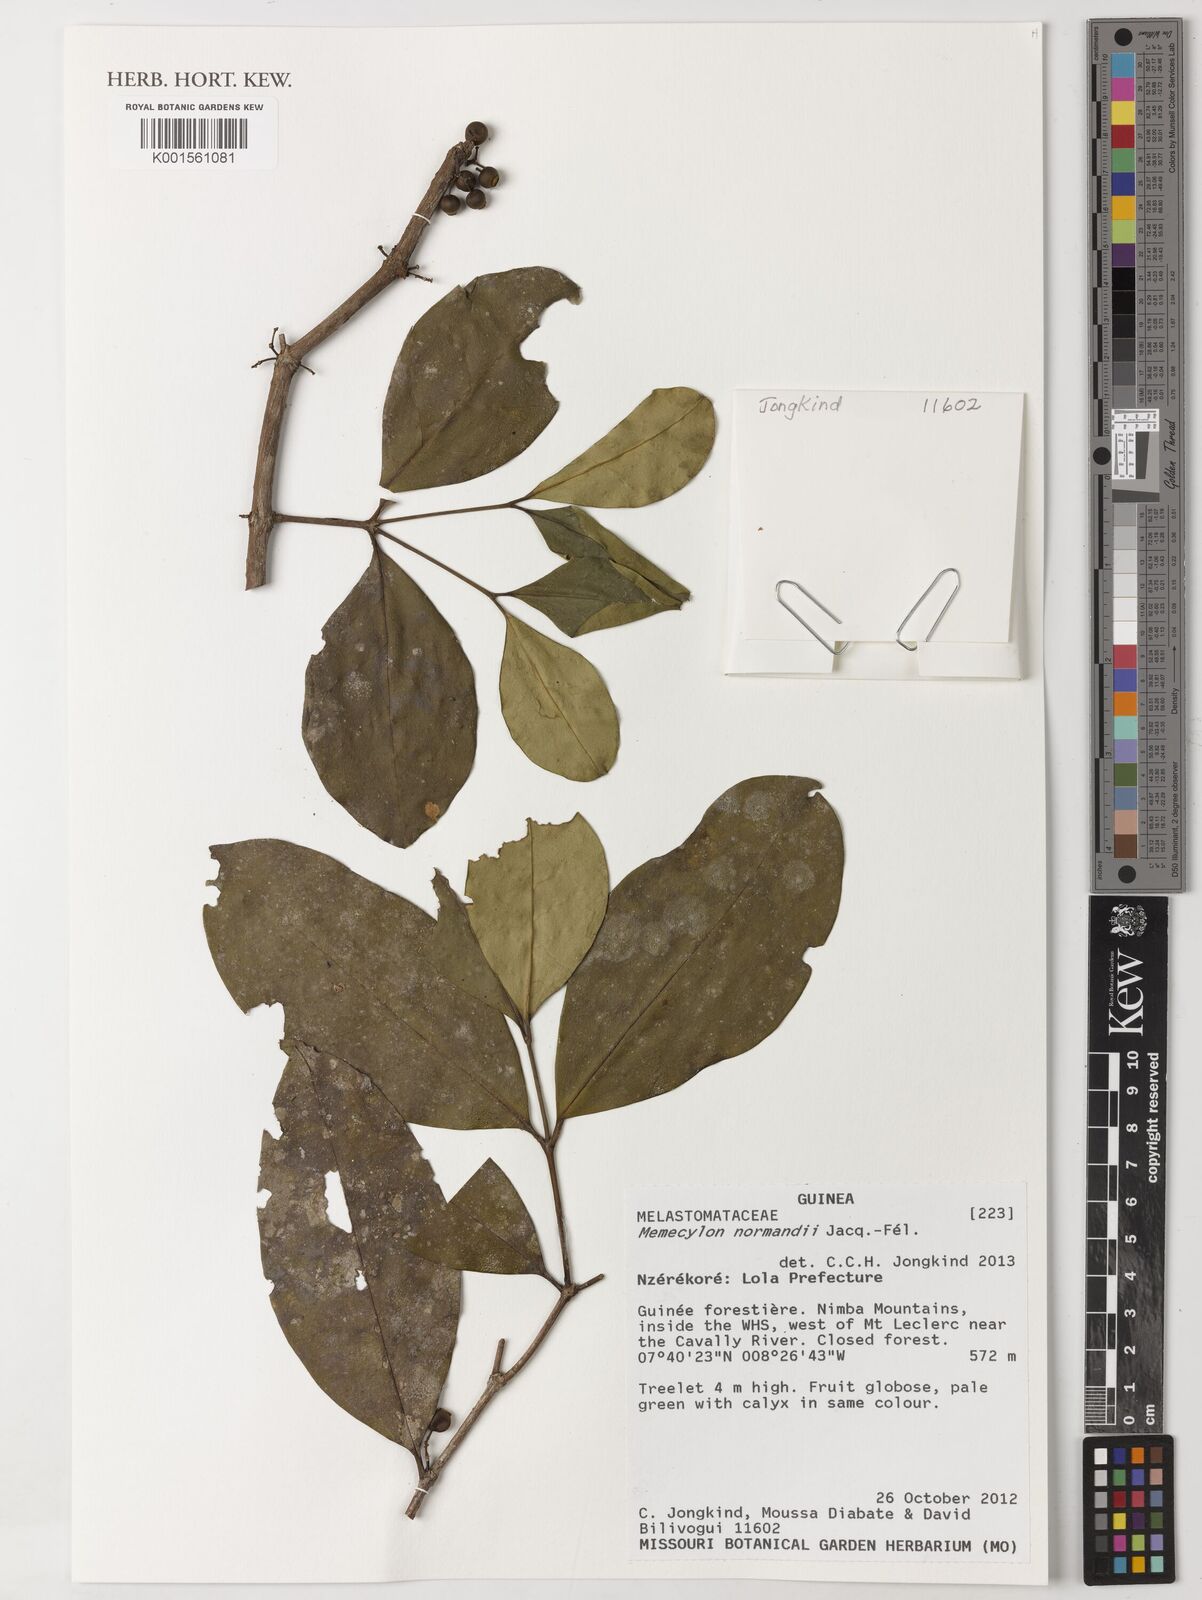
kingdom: Plantae
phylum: Tracheophyta
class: Magnoliopsida
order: Myrtales
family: Melastomataceae
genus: Memecylon
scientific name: Memecylon normandii
